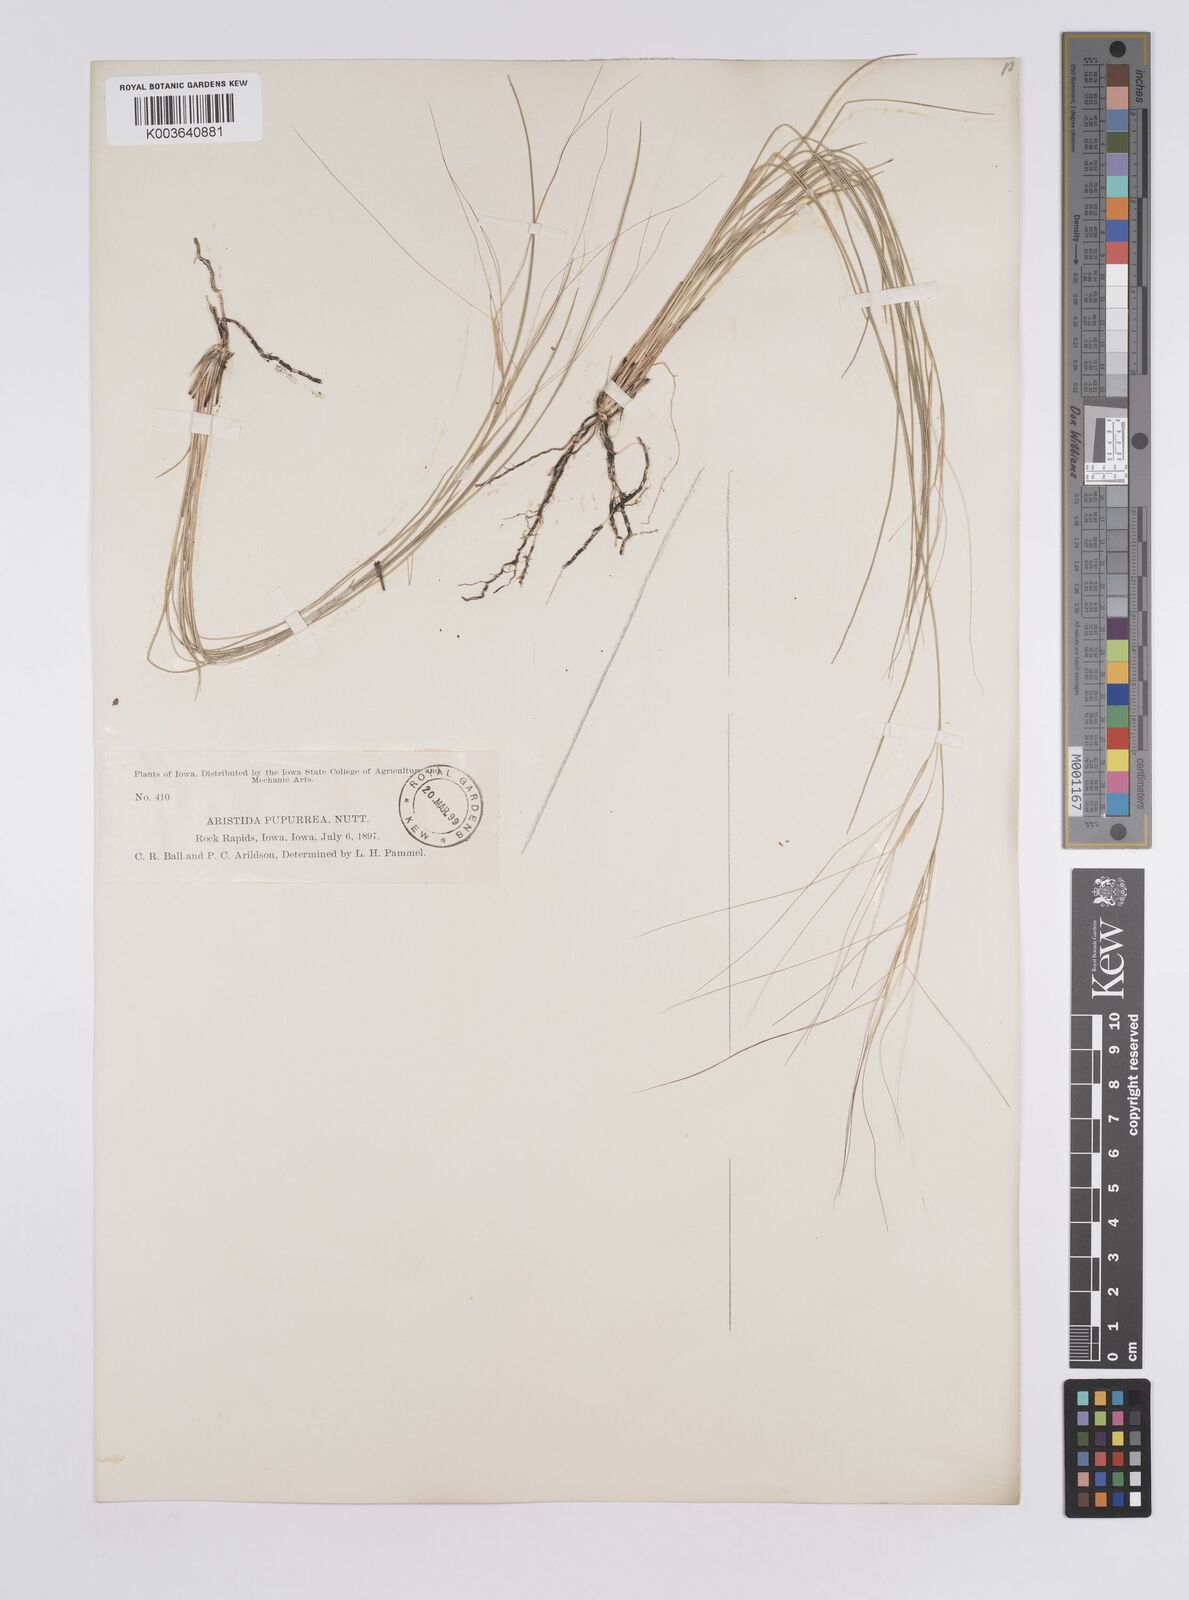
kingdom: Plantae
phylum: Tracheophyta
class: Liliopsida
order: Poales
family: Poaceae
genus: Aristida
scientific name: Aristida purpurea
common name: Purple threeawn
